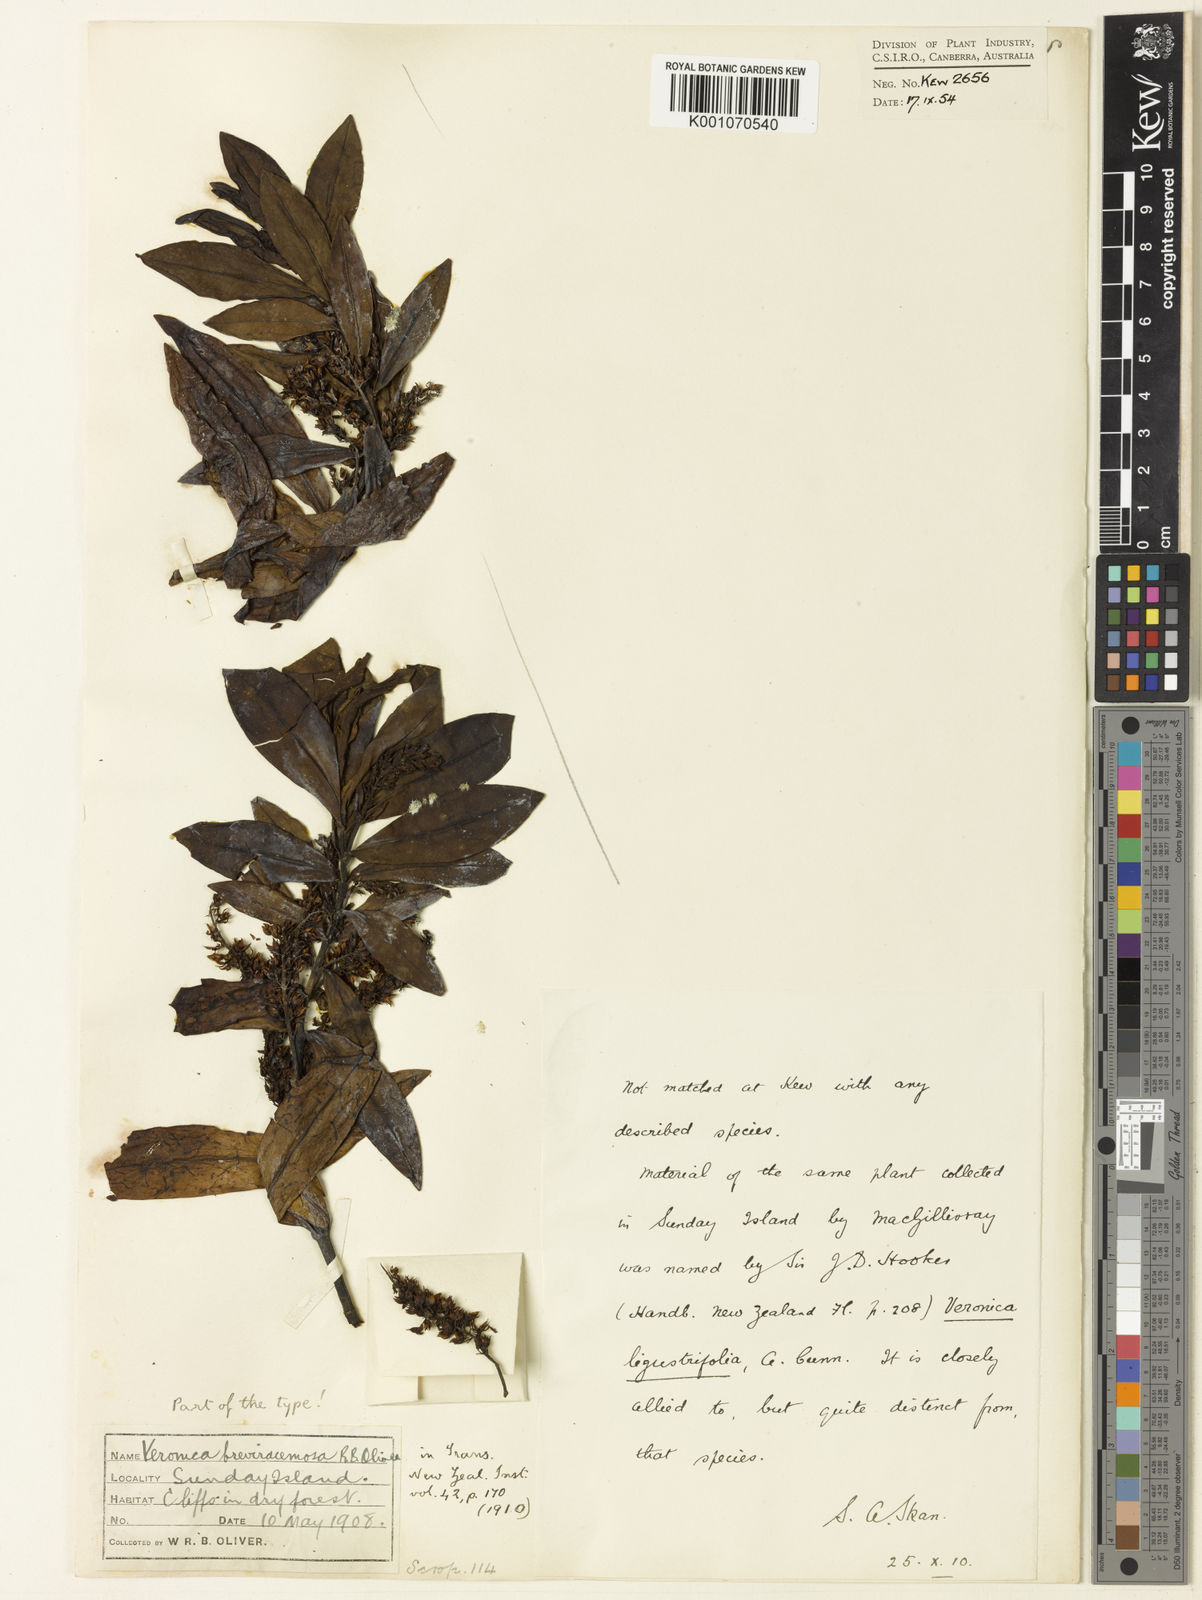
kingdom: Plantae
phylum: Tracheophyta
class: Magnoliopsida
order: Lamiales
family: Plantaginaceae
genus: Veronica
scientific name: Veronica
